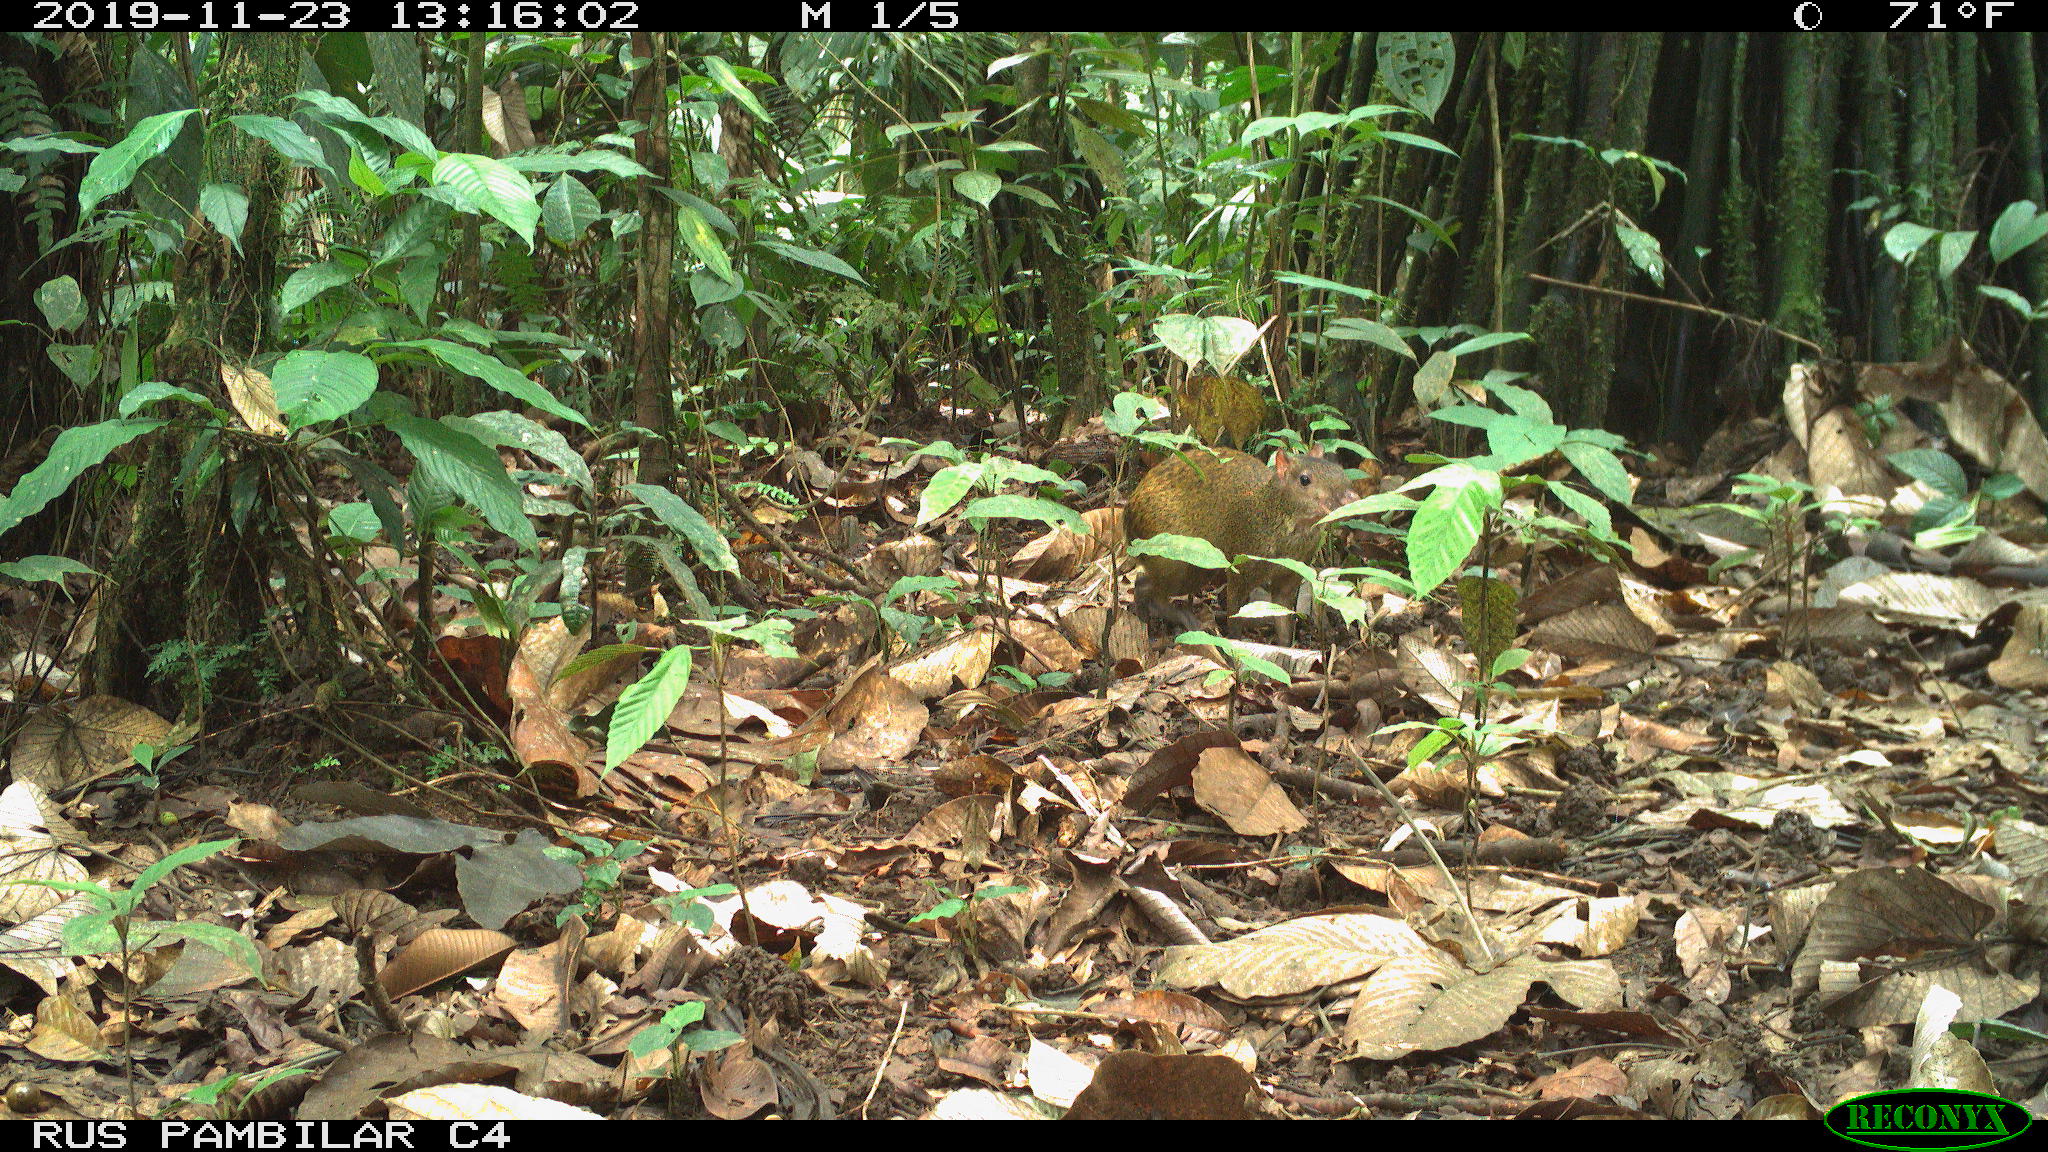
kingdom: Animalia
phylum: Chordata
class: Mammalia
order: Rodentia
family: Dasyproctidae
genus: Dasyprocta
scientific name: Dasyprocta punctata
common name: Central american agouti
